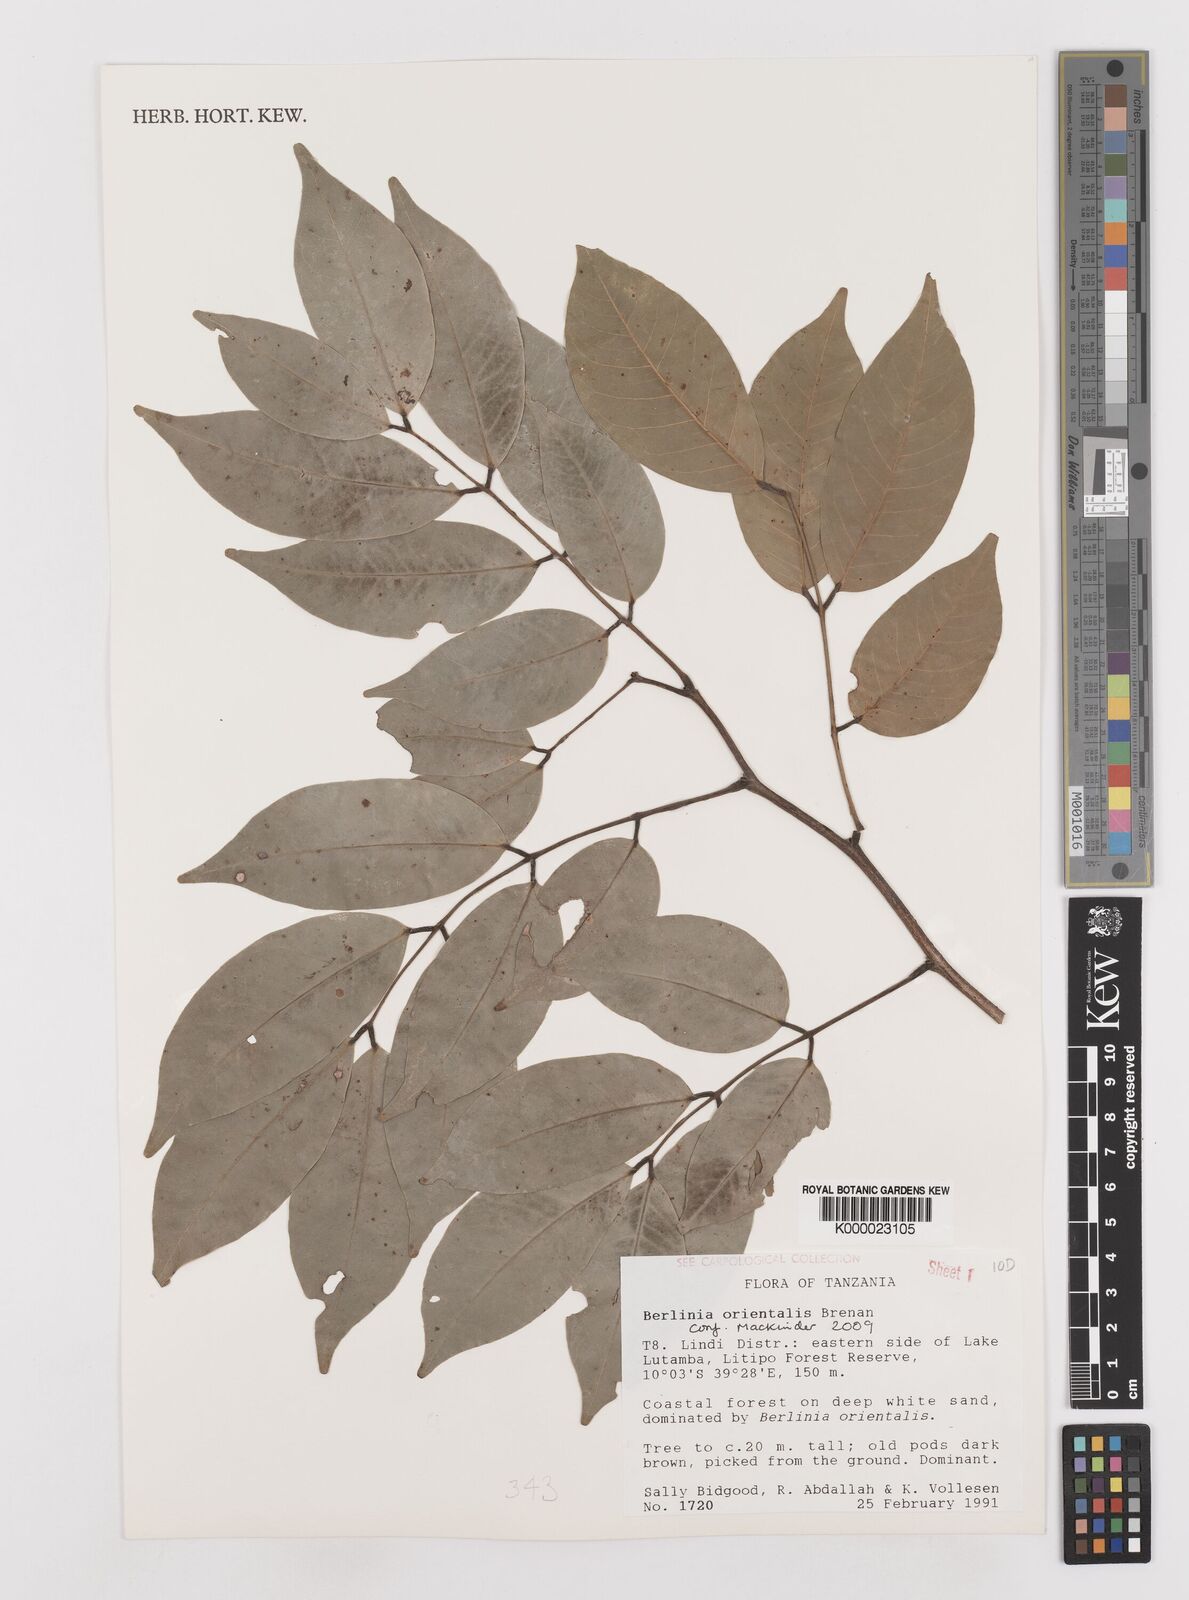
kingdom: Plantae
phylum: Tracheophyta
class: Magnoliopsida
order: Fabales
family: Fabaceae
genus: Berlinia
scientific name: Berlinia orientalis
